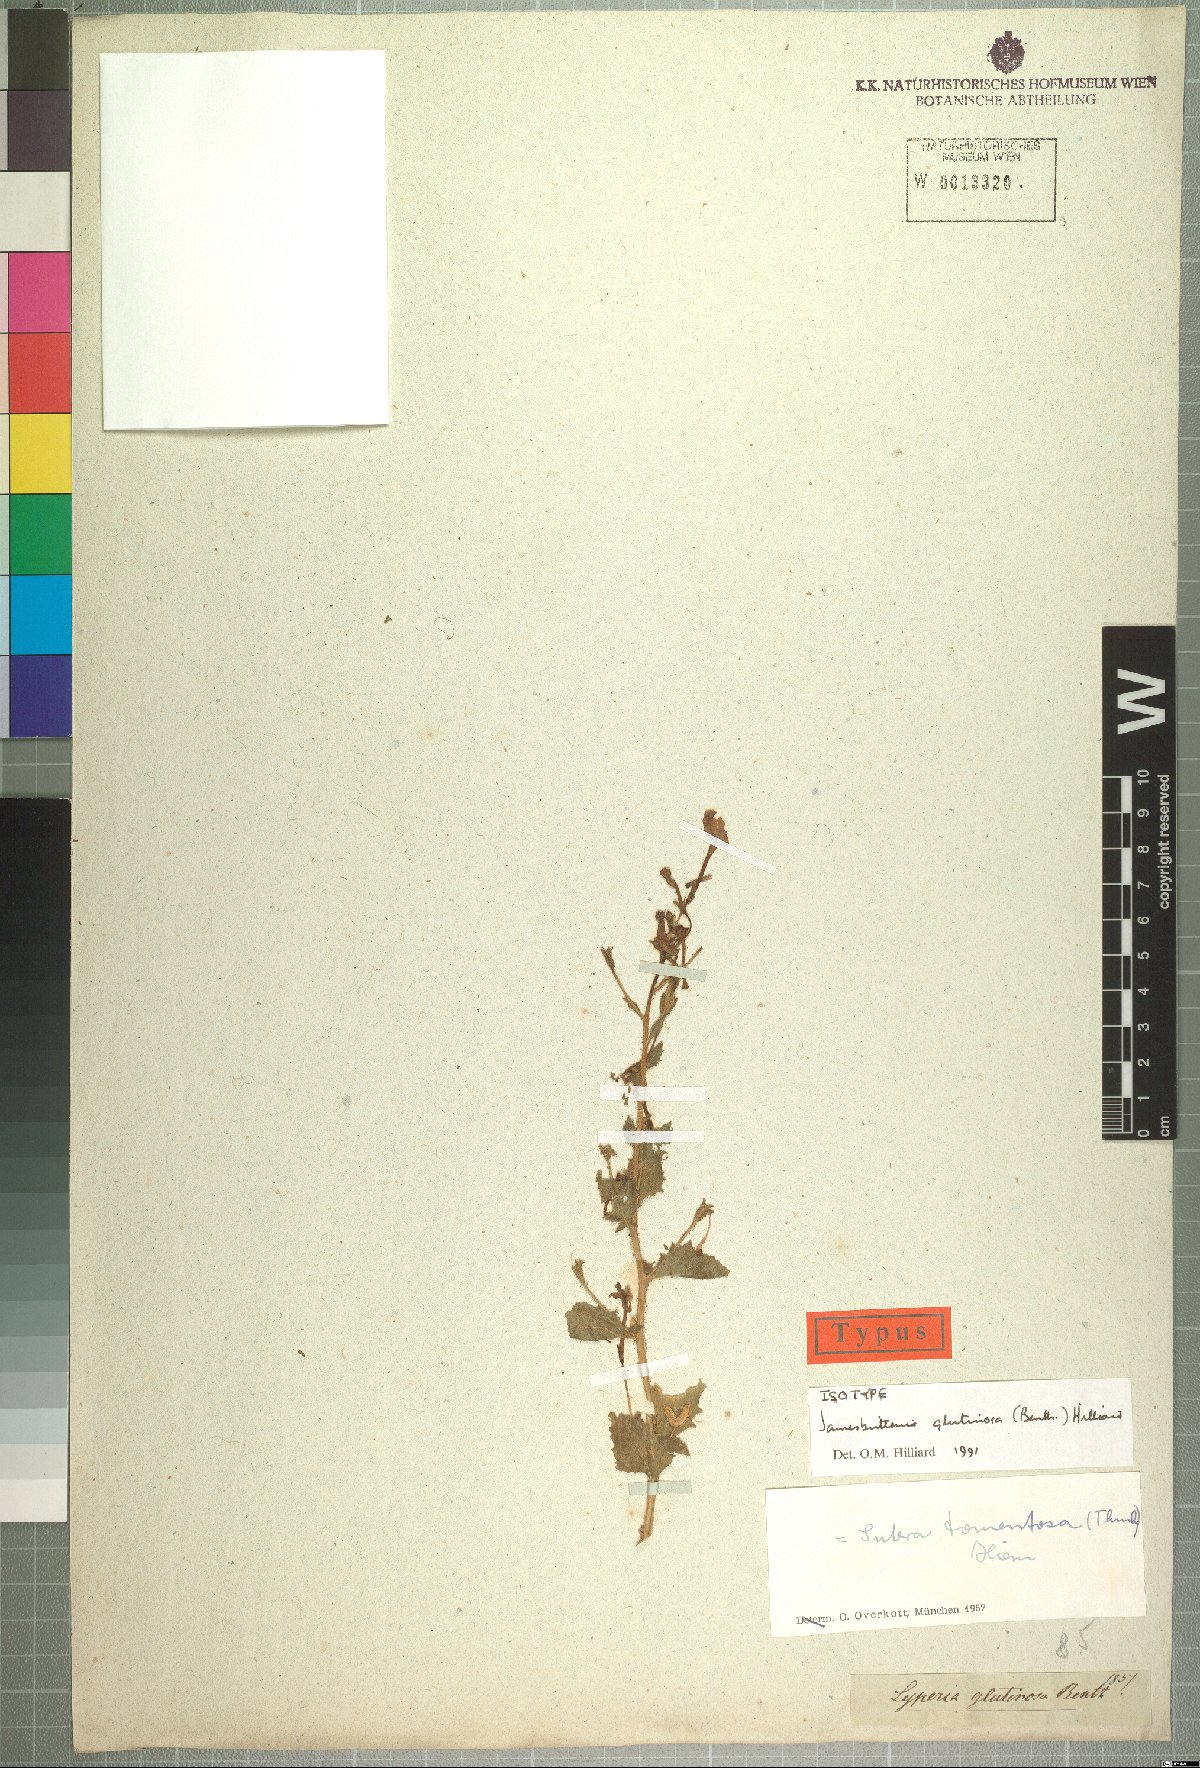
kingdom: Plantae
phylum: Tracheophyta
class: Magnoliopsida
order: Lamiales
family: Scrophulariaceae
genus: Jamesbrittenia
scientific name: Jamesbrittenia glutinosa
